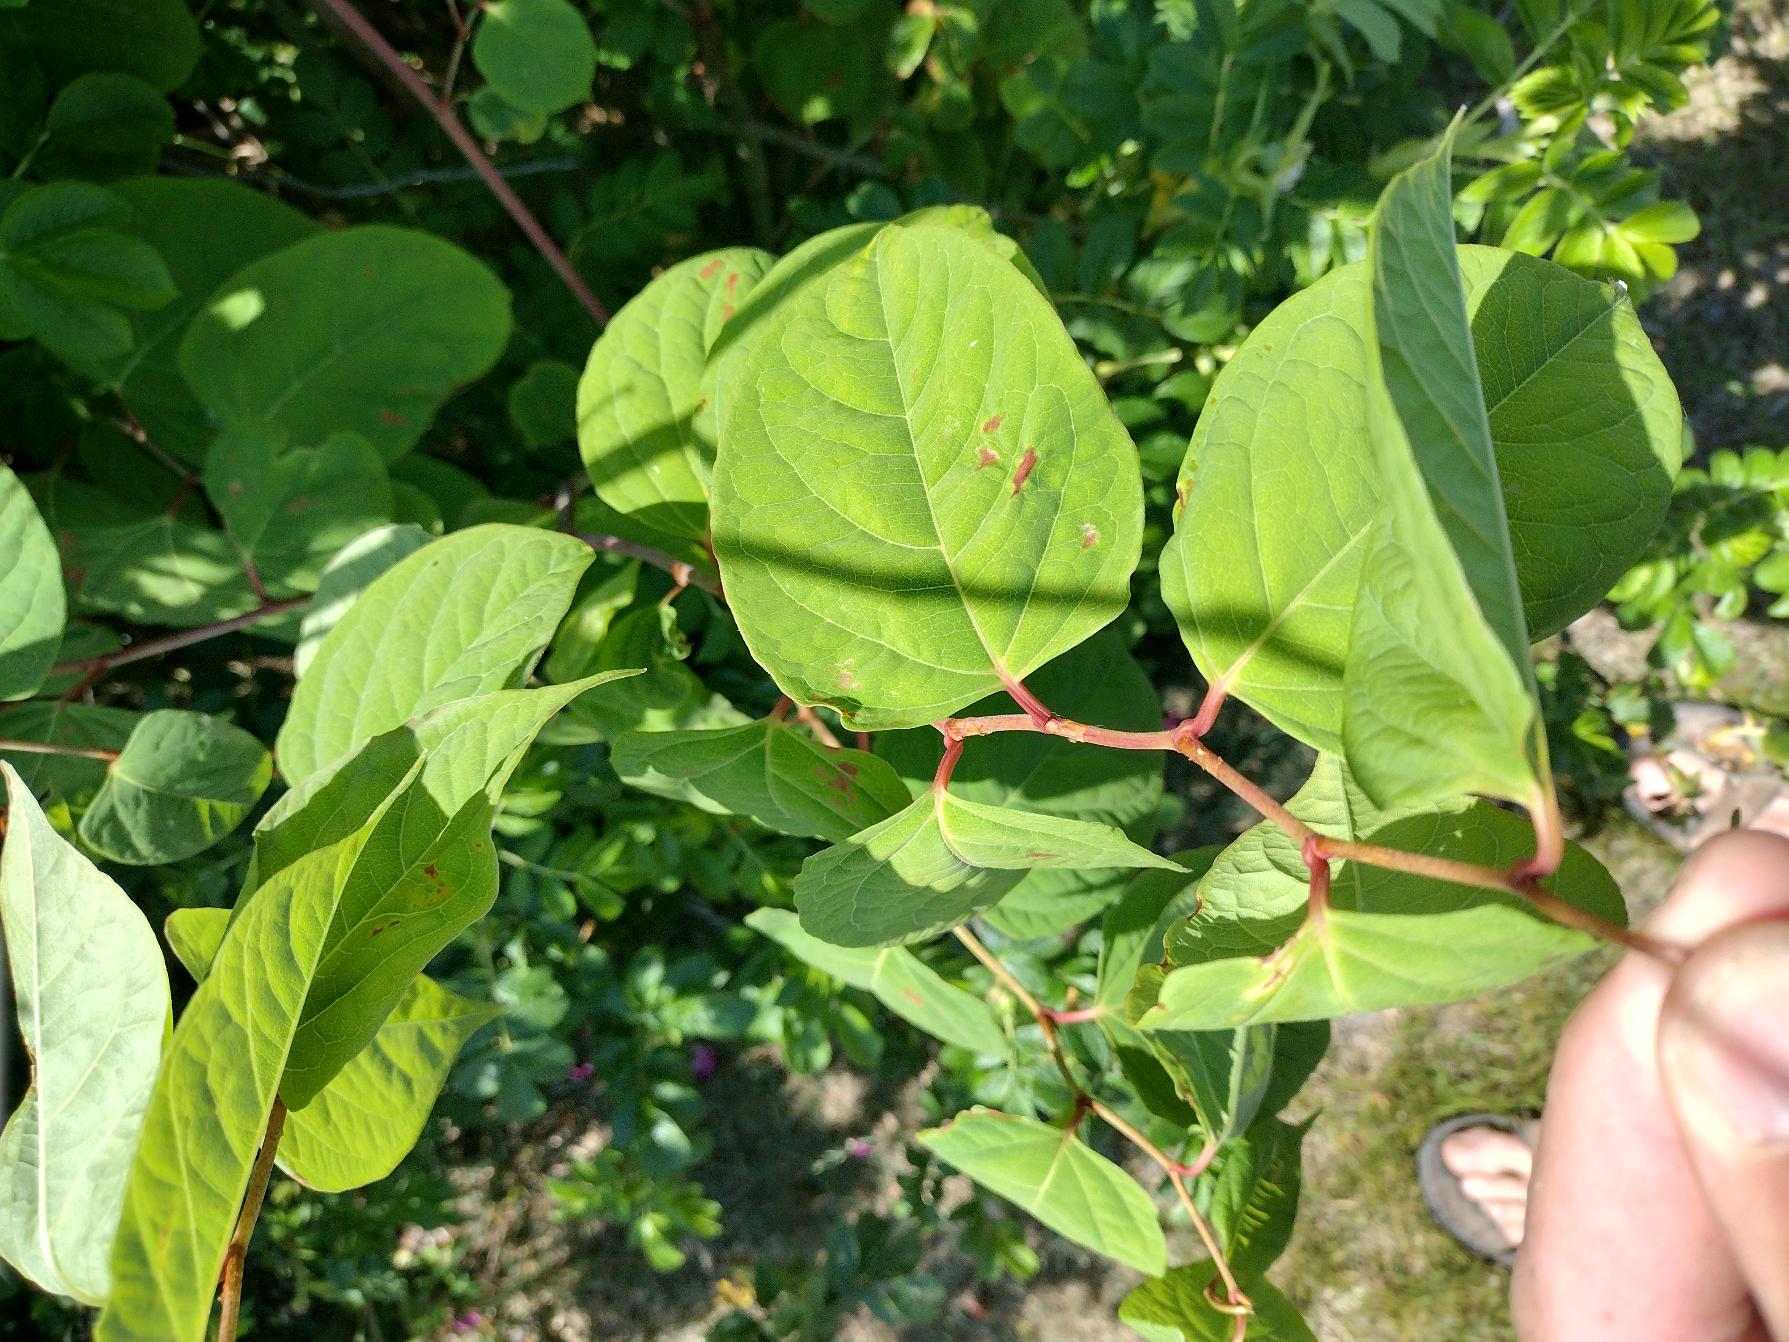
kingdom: Plantae
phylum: Tracheophyta
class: Magnoliopsida
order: Caryophyllales
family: Polygonaceae
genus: Reynoutria
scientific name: Reynoutria japonica
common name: Japan-pileurt
